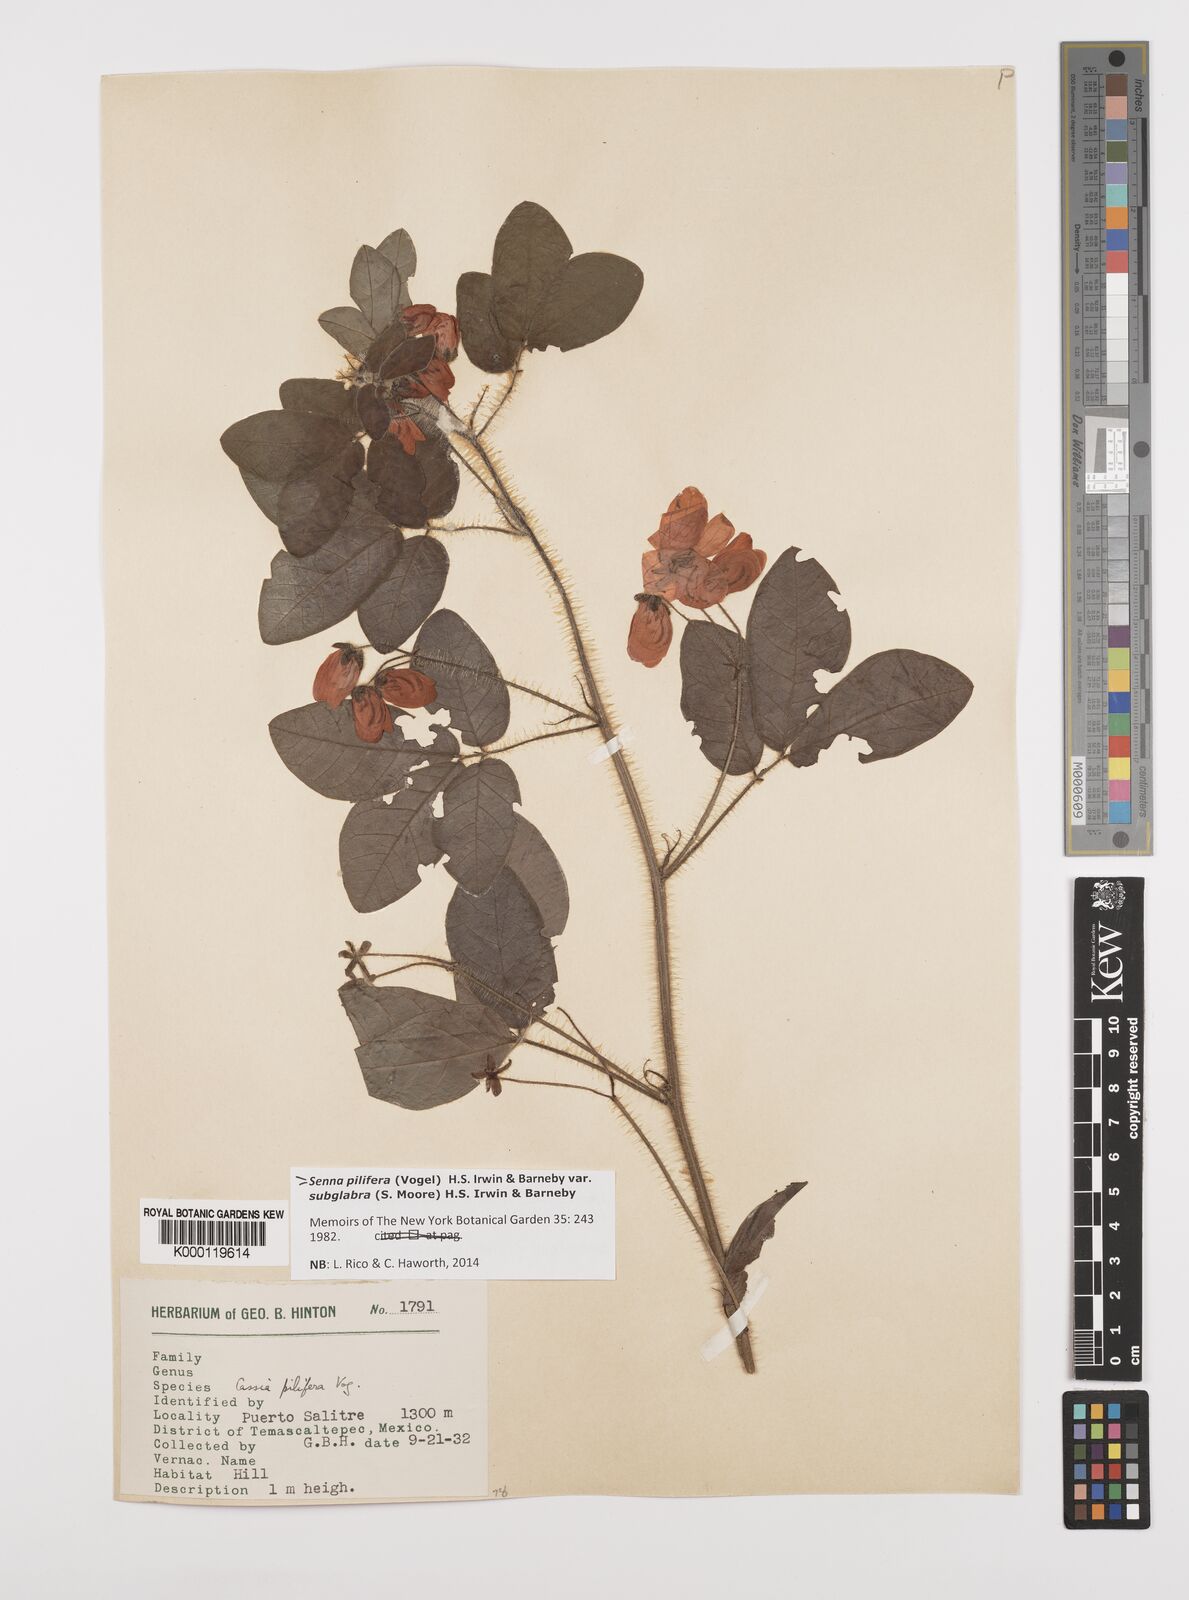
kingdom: Plantae
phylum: Tracheophyta
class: Magnoliopsida
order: Fabales
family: Fabaceae
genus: Senna
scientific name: Senna pilifera
